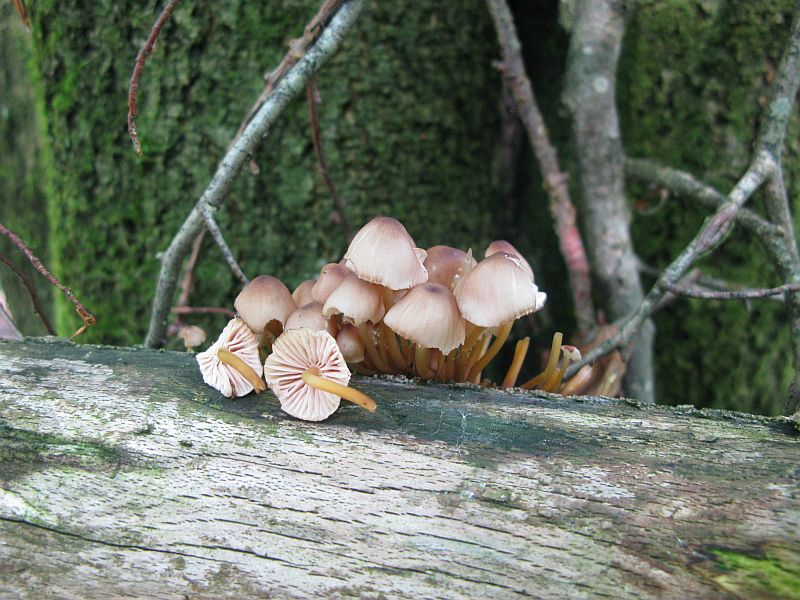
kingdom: Fungi
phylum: Basidiomycota
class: Agaricomycetes
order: Agaricales
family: Mycenaceae
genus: Mycena
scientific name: Mycena renati
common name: smuk huesvamp
